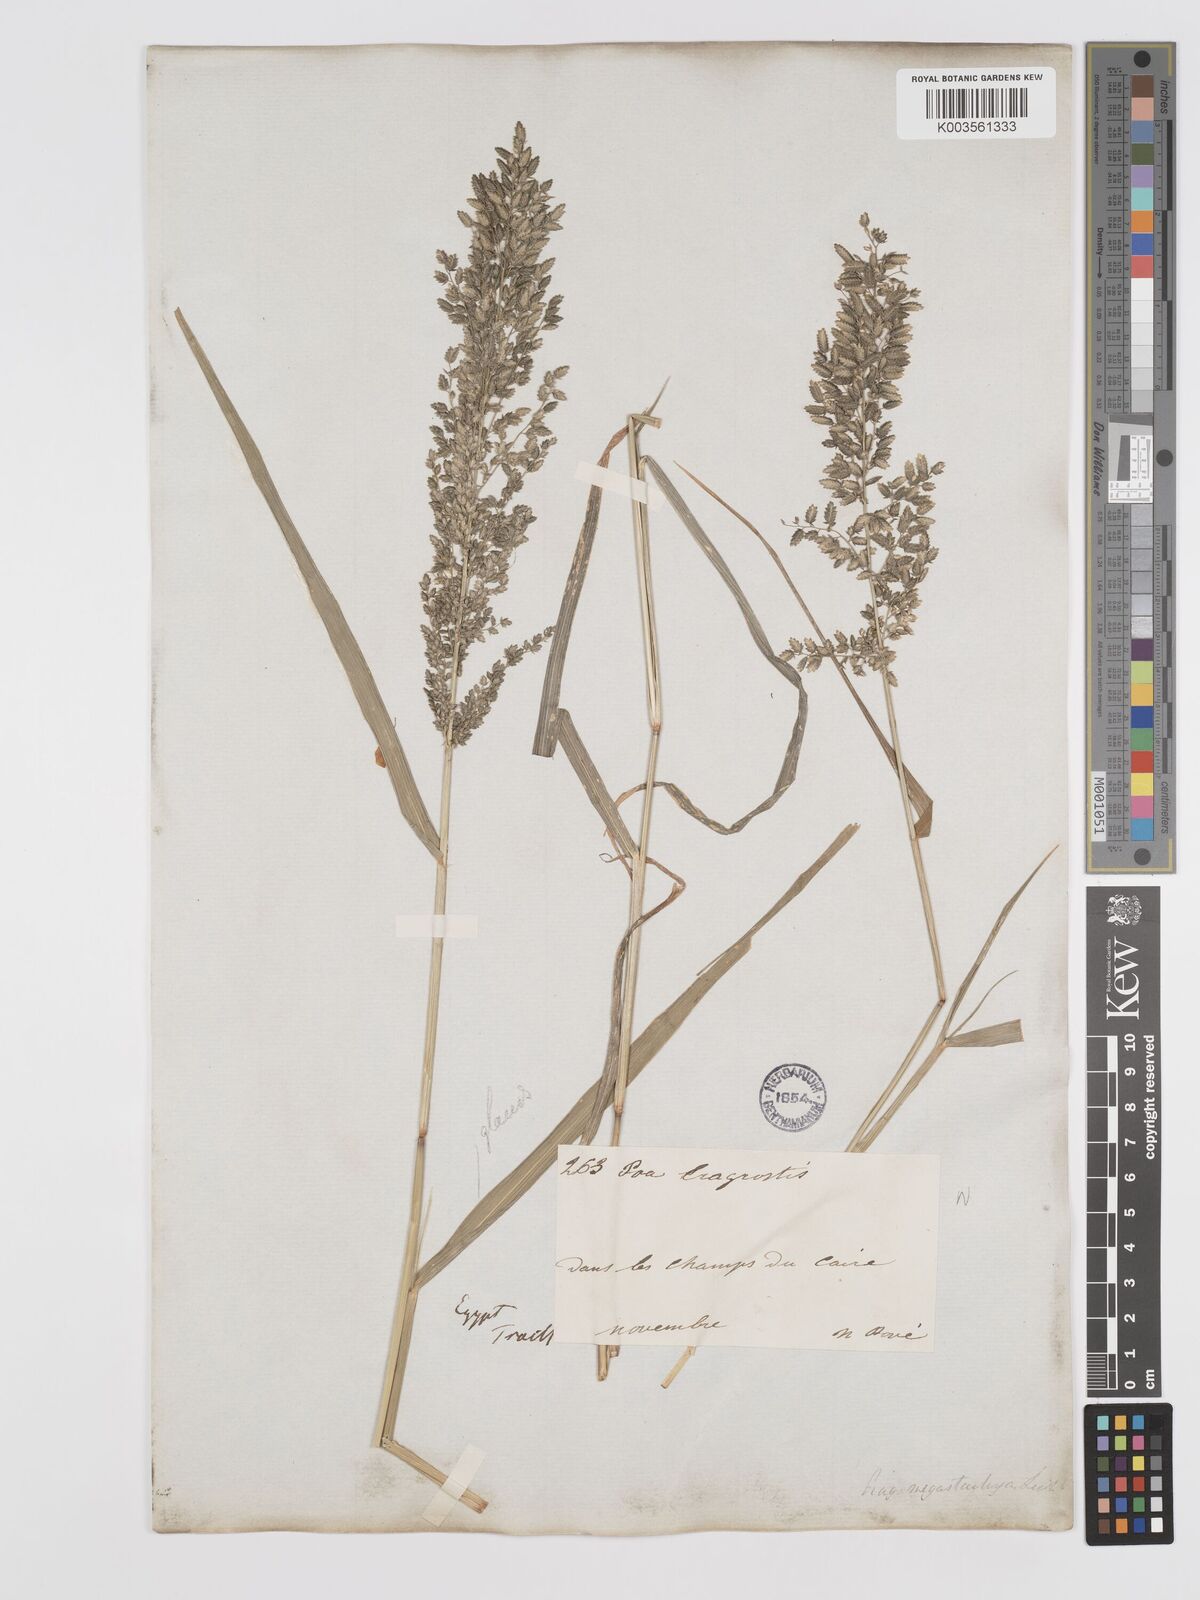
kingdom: Plantae
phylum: Tracheophyta
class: Liliopsida
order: Poales
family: Poaceae
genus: Eragrostis
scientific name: Eragrostis cilianensis
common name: Stinkgrass
